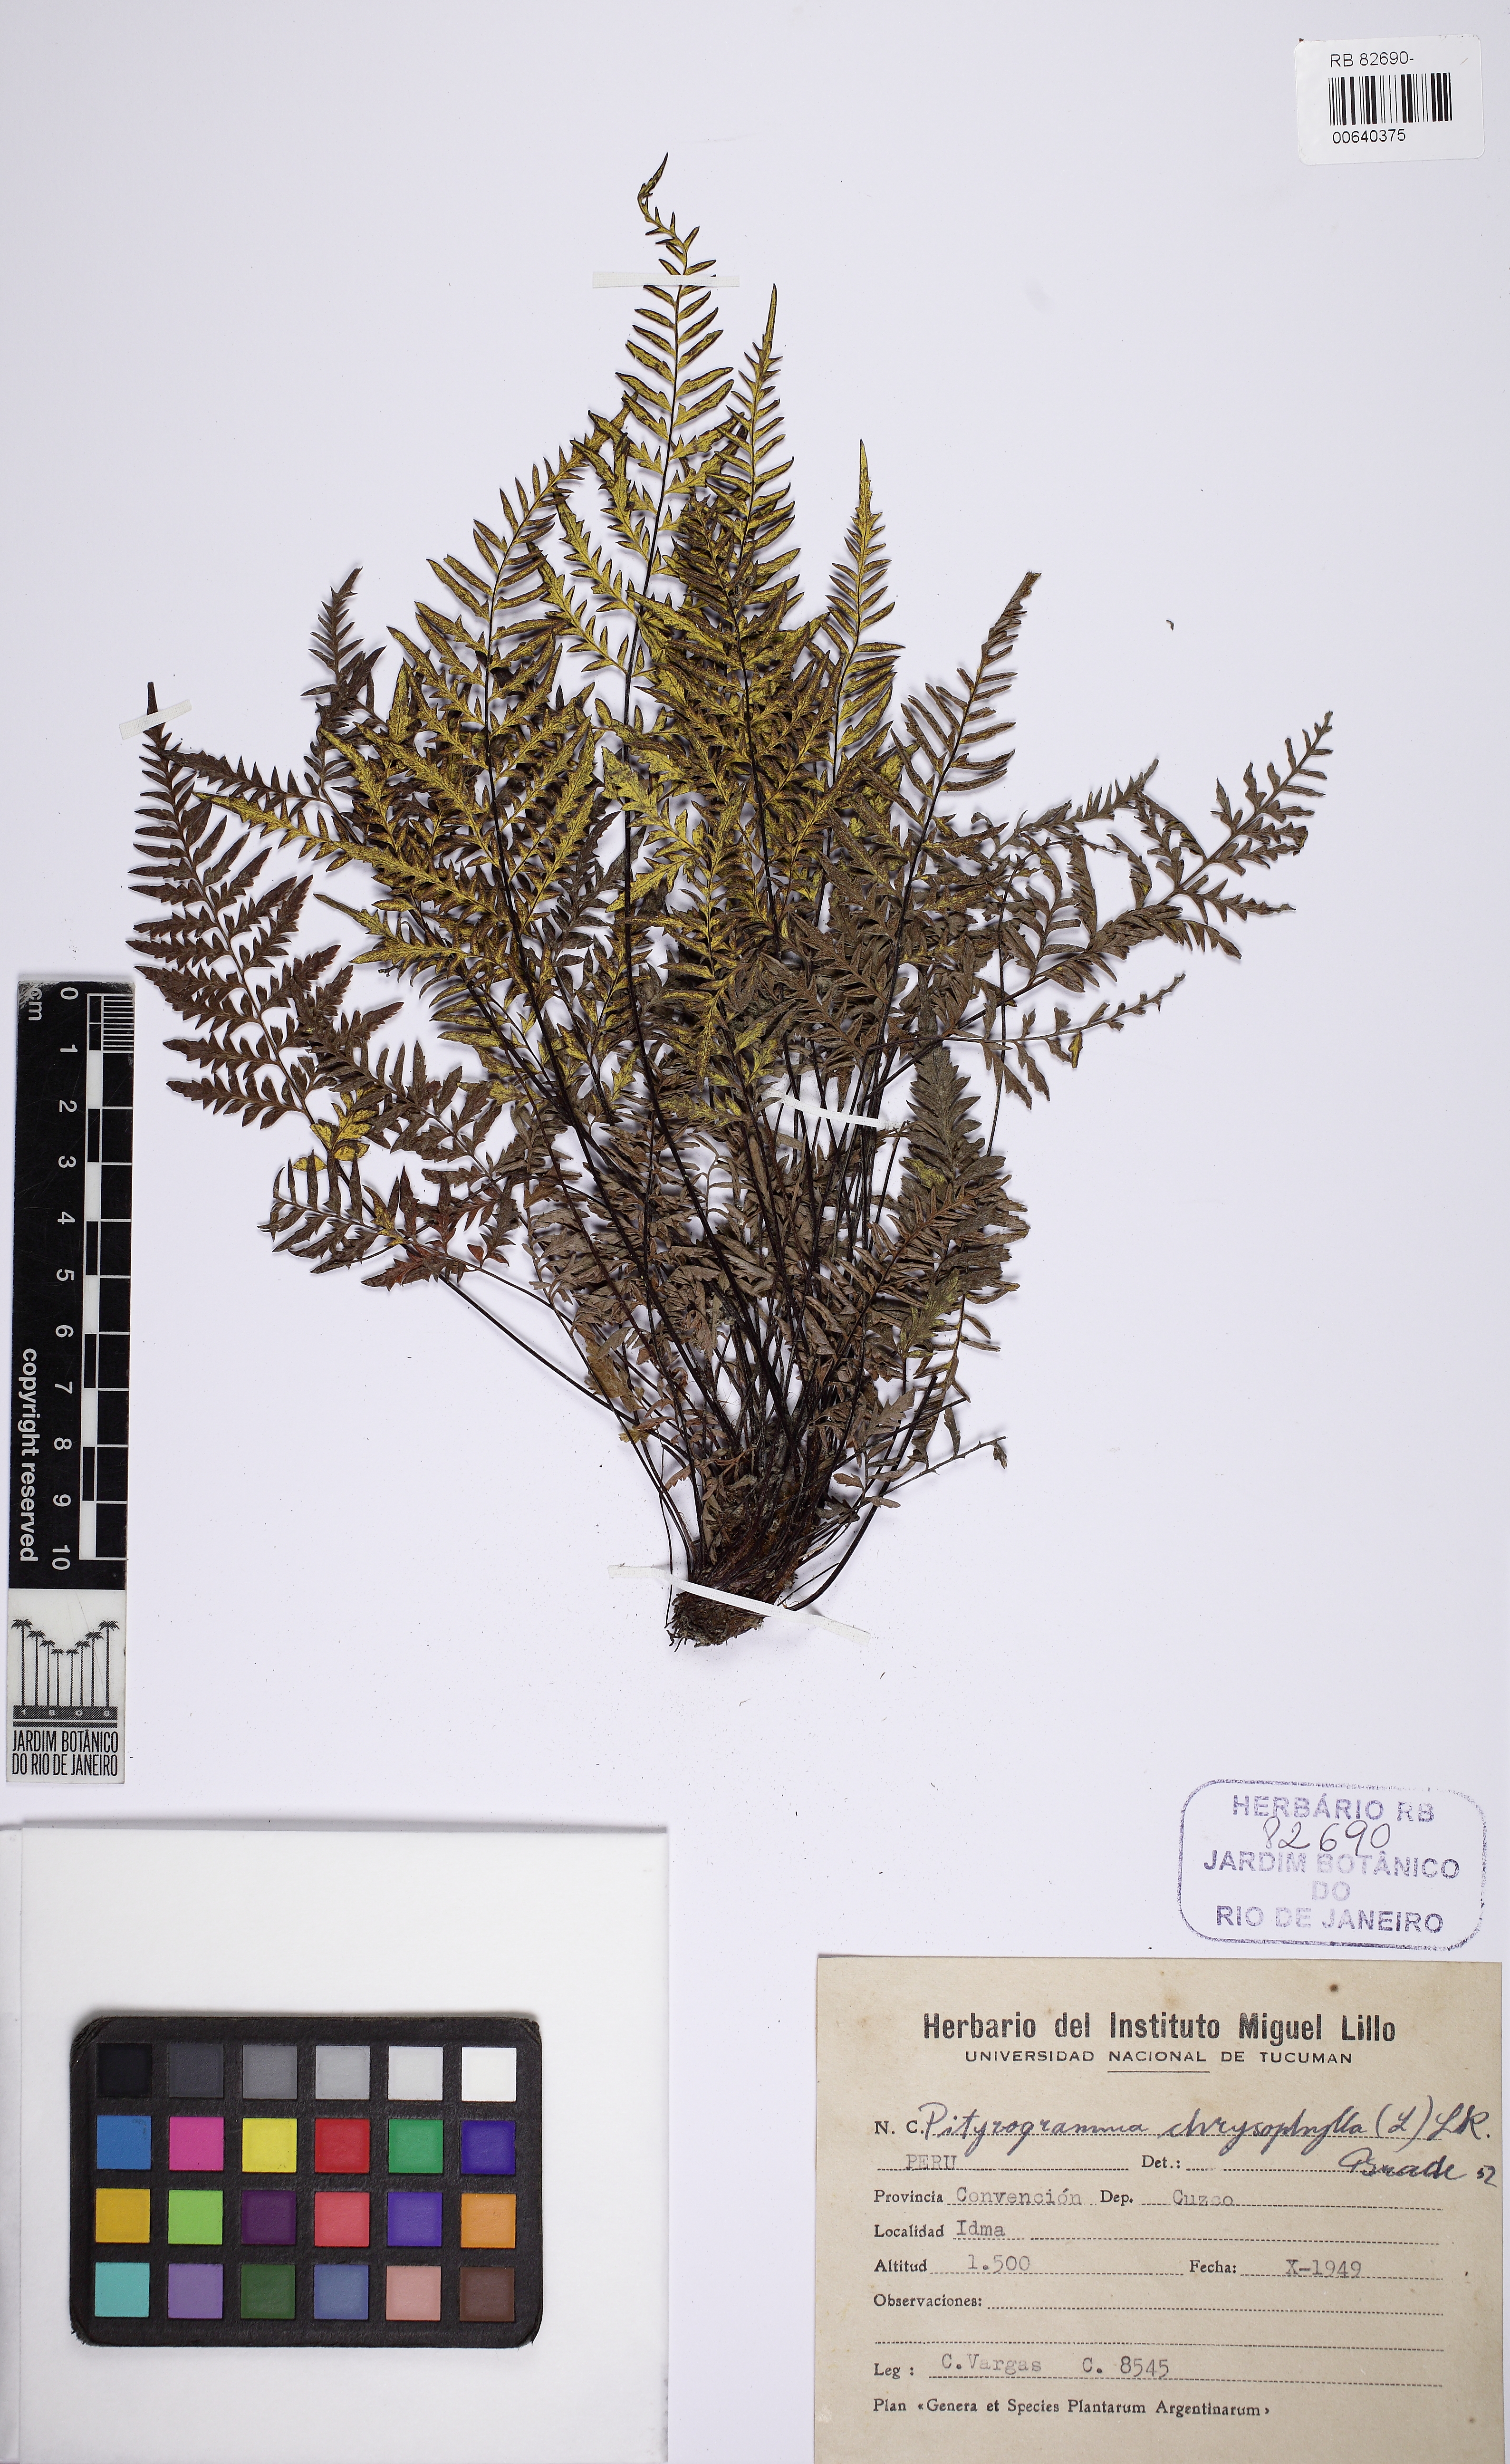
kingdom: Plantae
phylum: Tracheophyta
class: Polypodiopsida
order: Polypodiales
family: Pteridaceae
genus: Pityrogramma
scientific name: Pityrogramma chrysophylla
